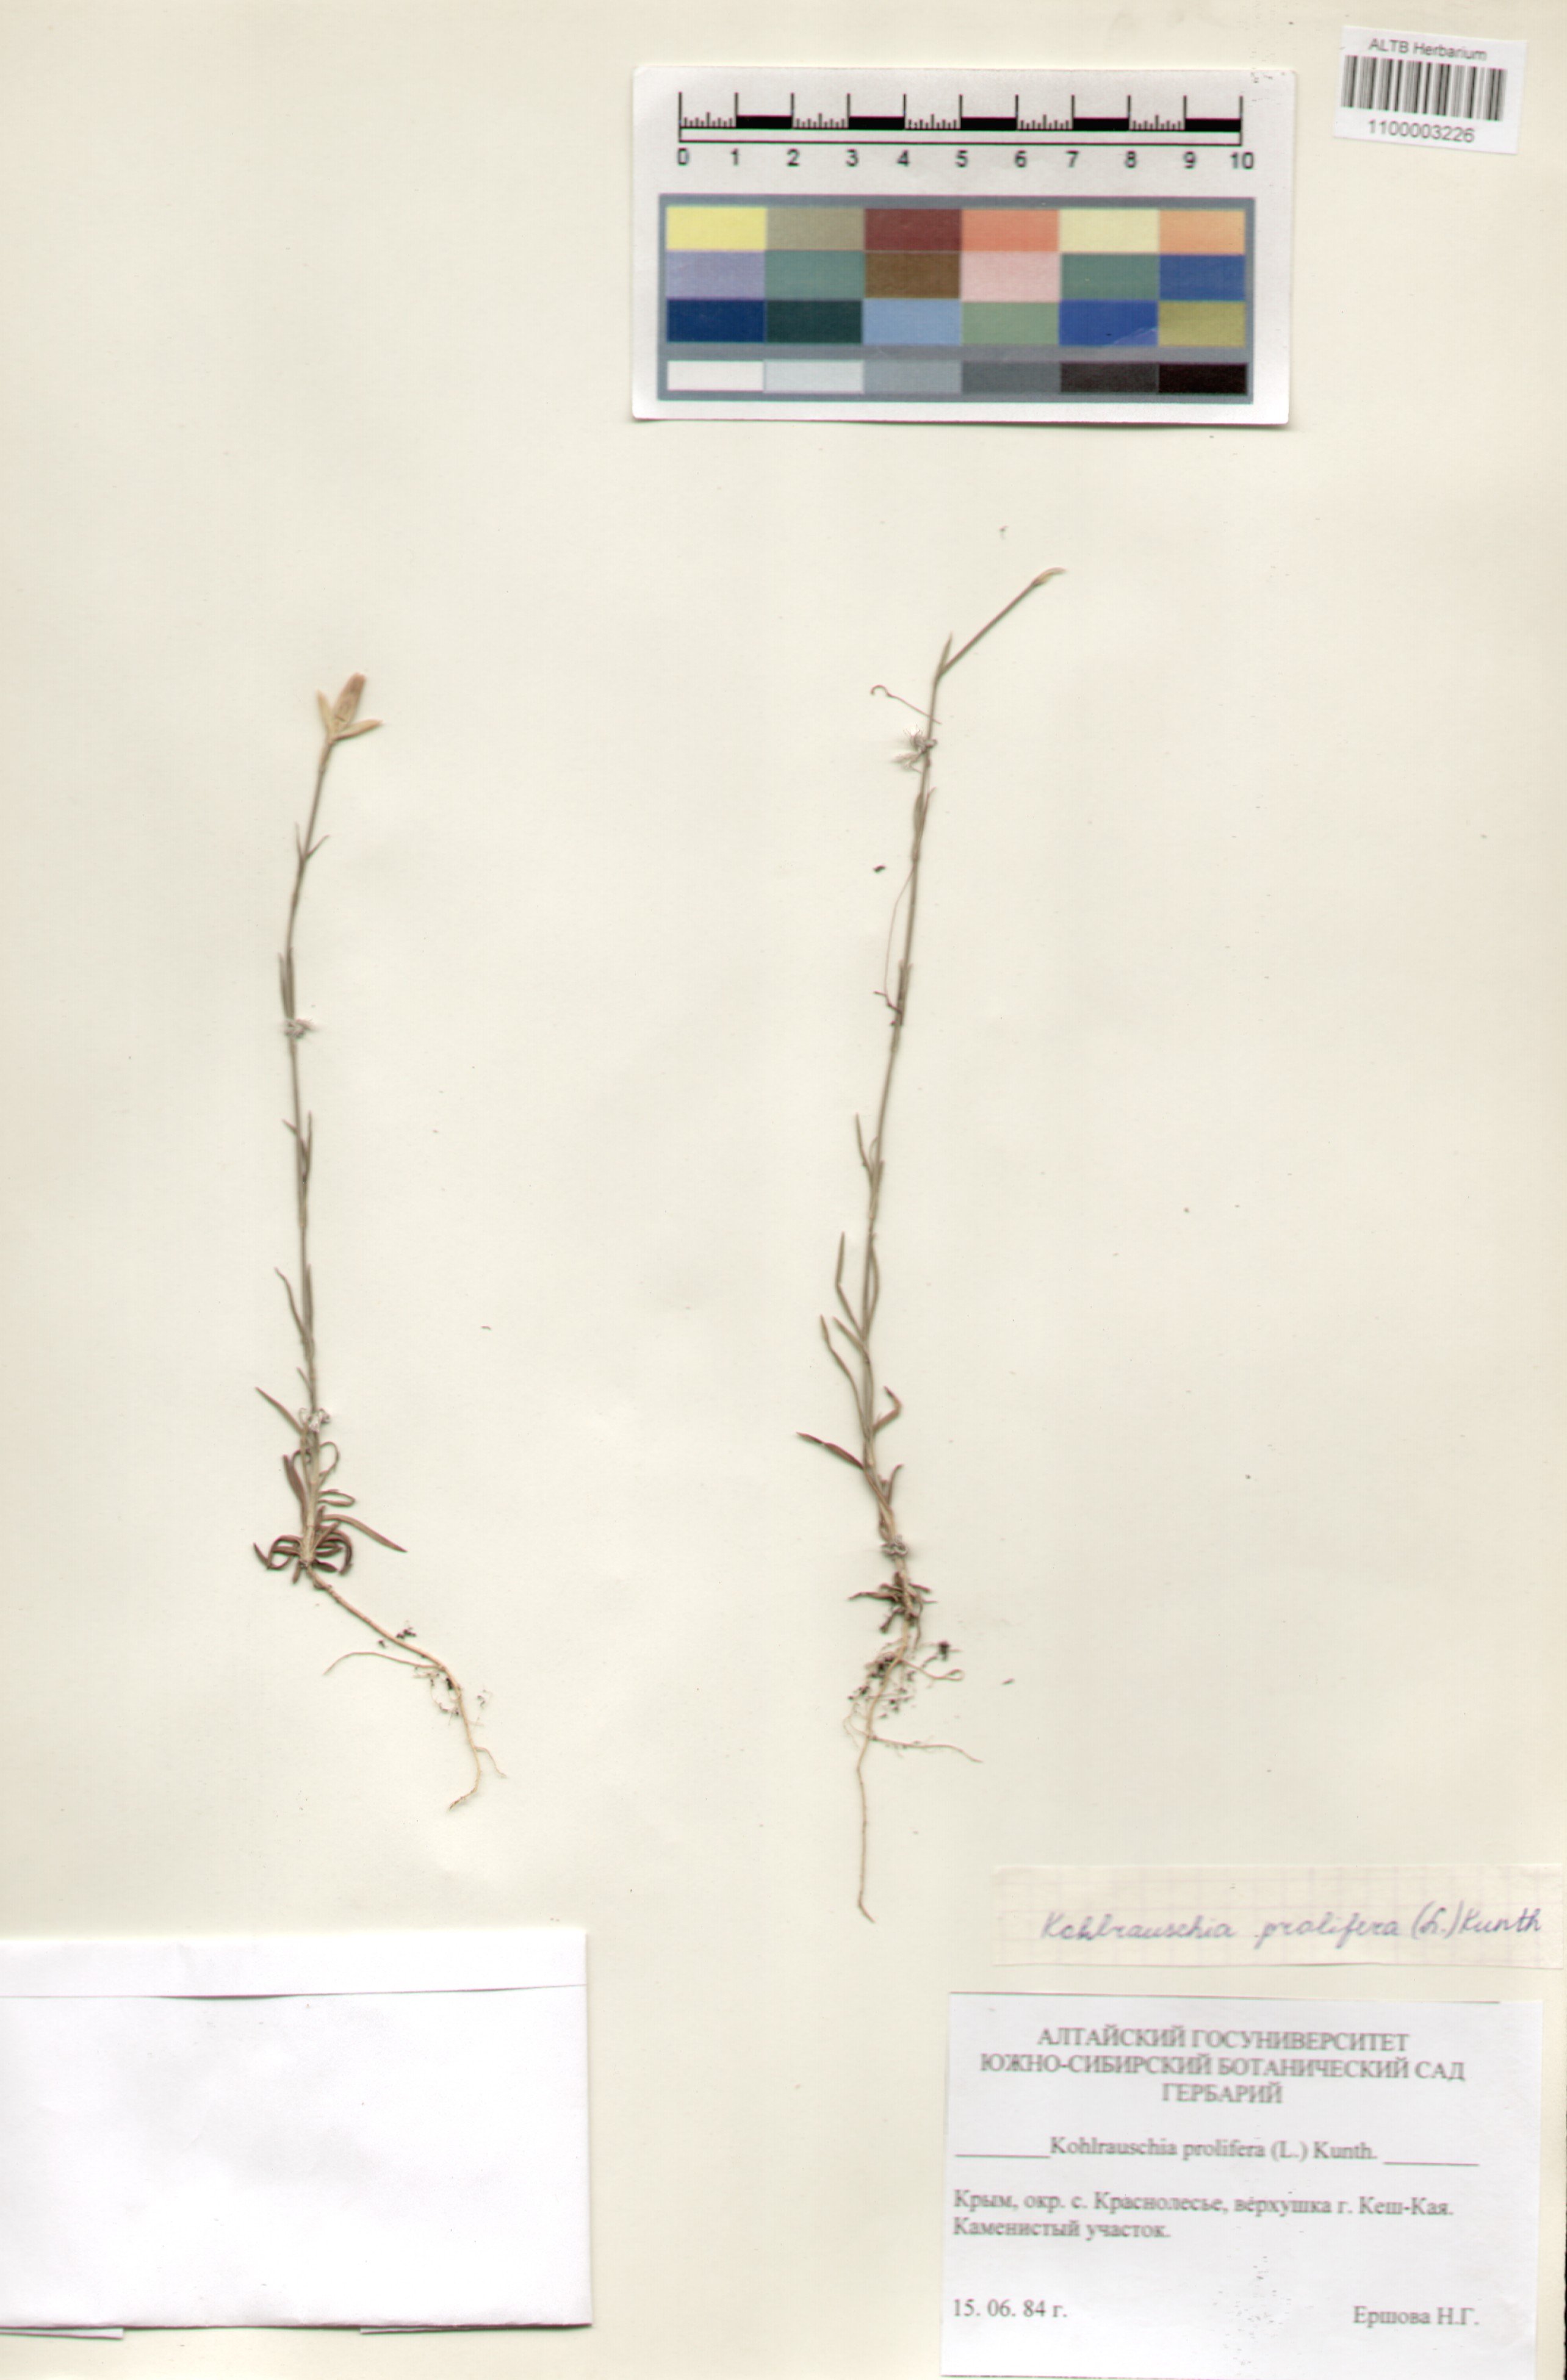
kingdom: Plantae
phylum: Tracheophyta
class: Magnoliopsida
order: Caryophyllales
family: Caryophyllaceae
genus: Petrorhagia
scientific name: Petrorhagia prolifera
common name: Proliferous pink
